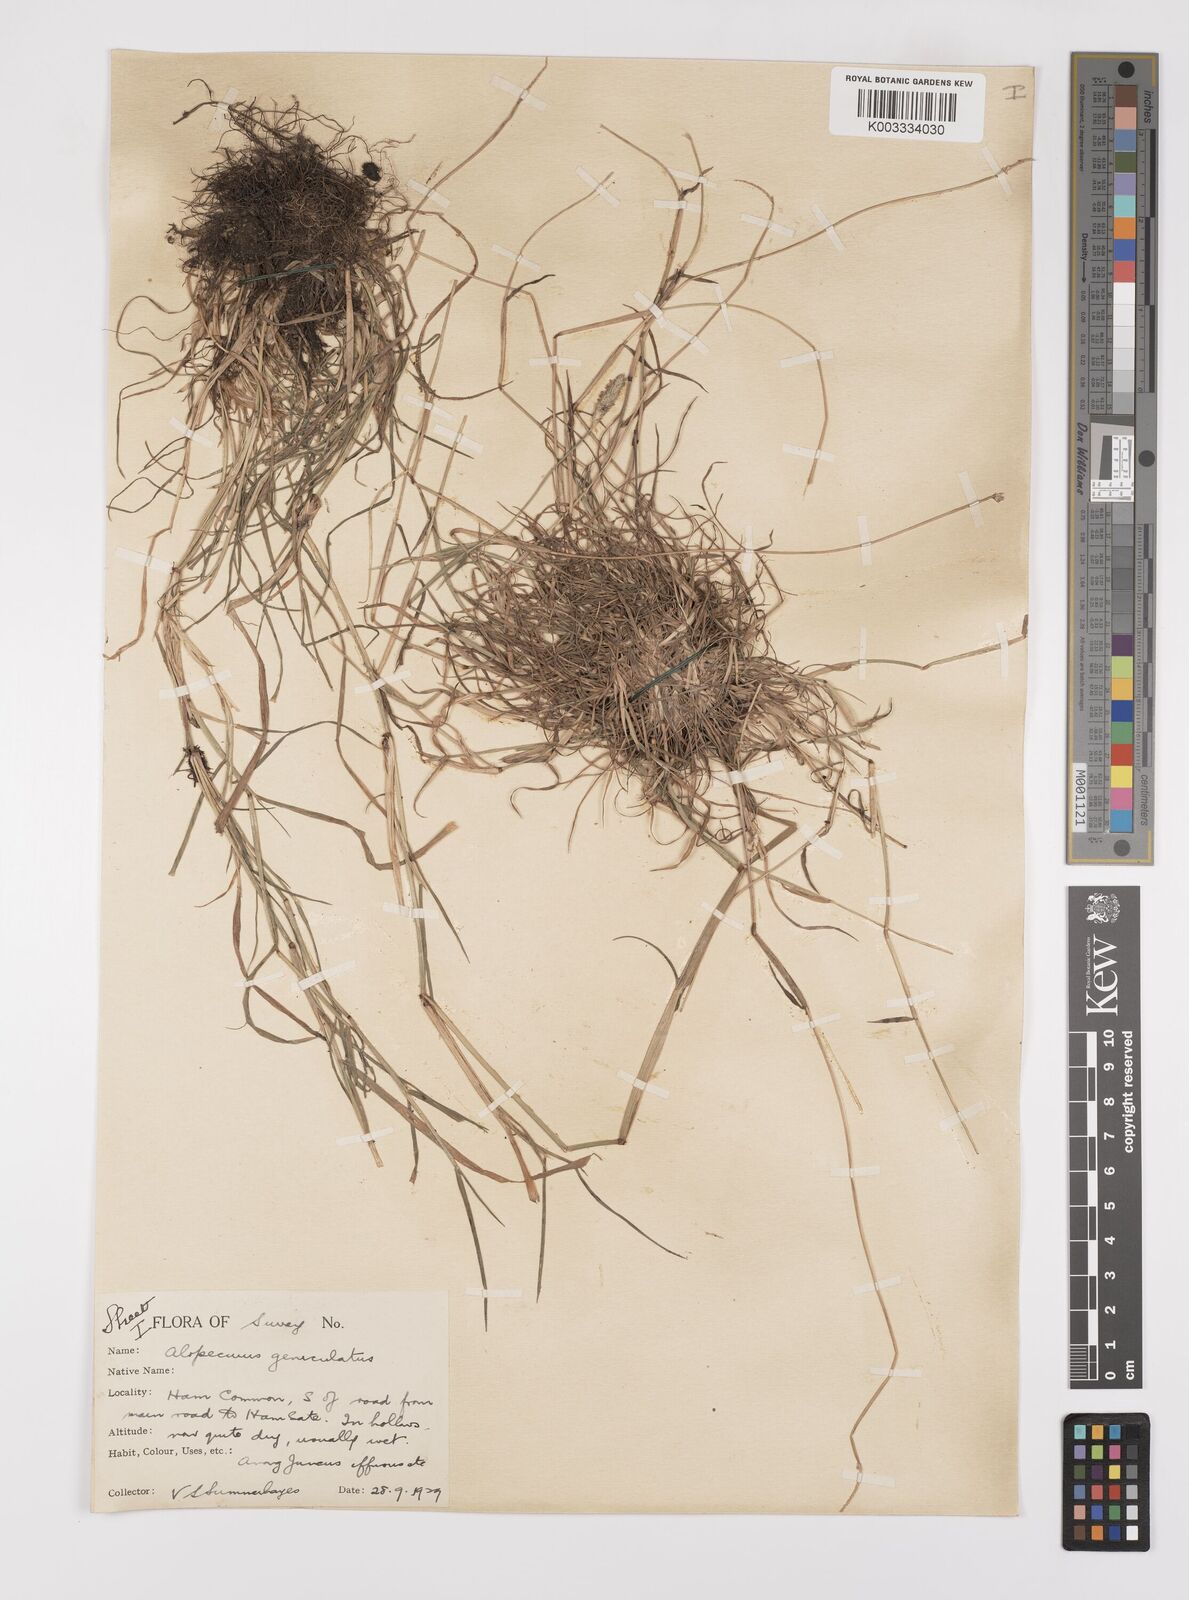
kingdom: Plantae
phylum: Tracheophyta
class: Liliopsida
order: Poales
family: Poaceae
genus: Alopecurus
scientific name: Alopecurus geniculatus
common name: Water foxtail
